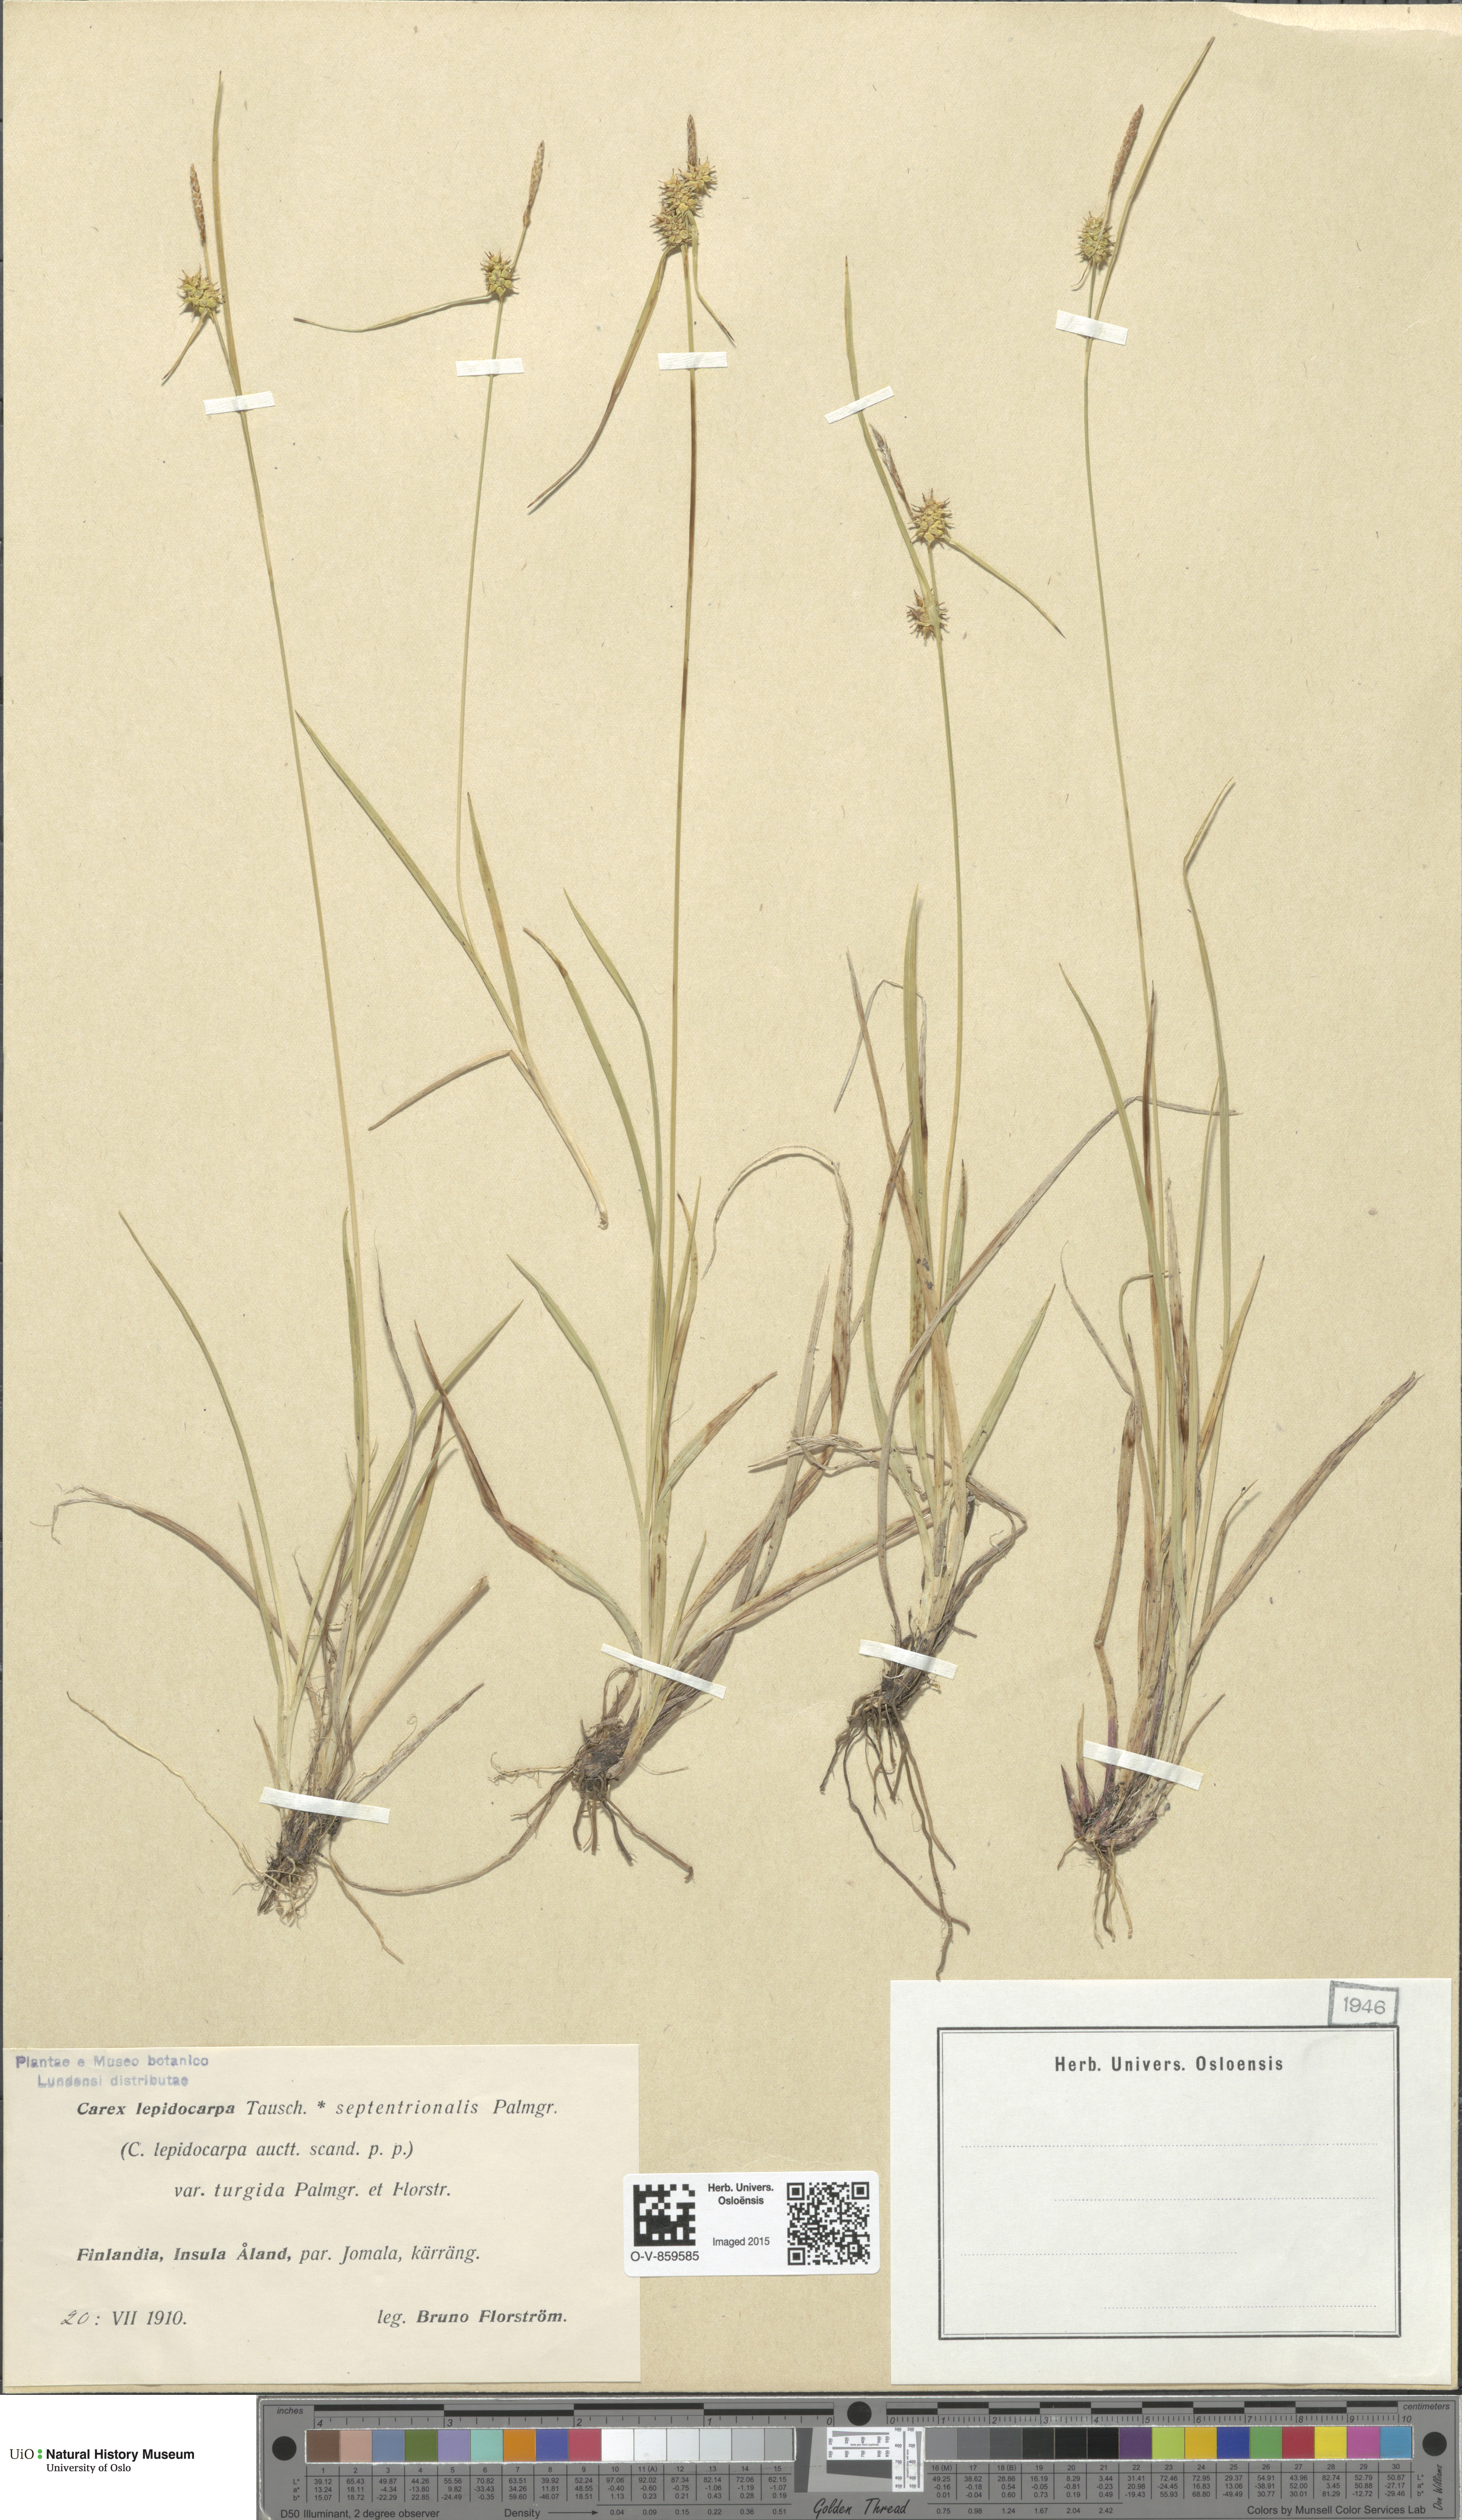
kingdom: Plantae
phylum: Tracheophyta
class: Liliopsida
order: Poales
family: Cyperaceae
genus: Carex
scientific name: Carex lepidocarpa
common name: Long-stalked yellow-sedge
